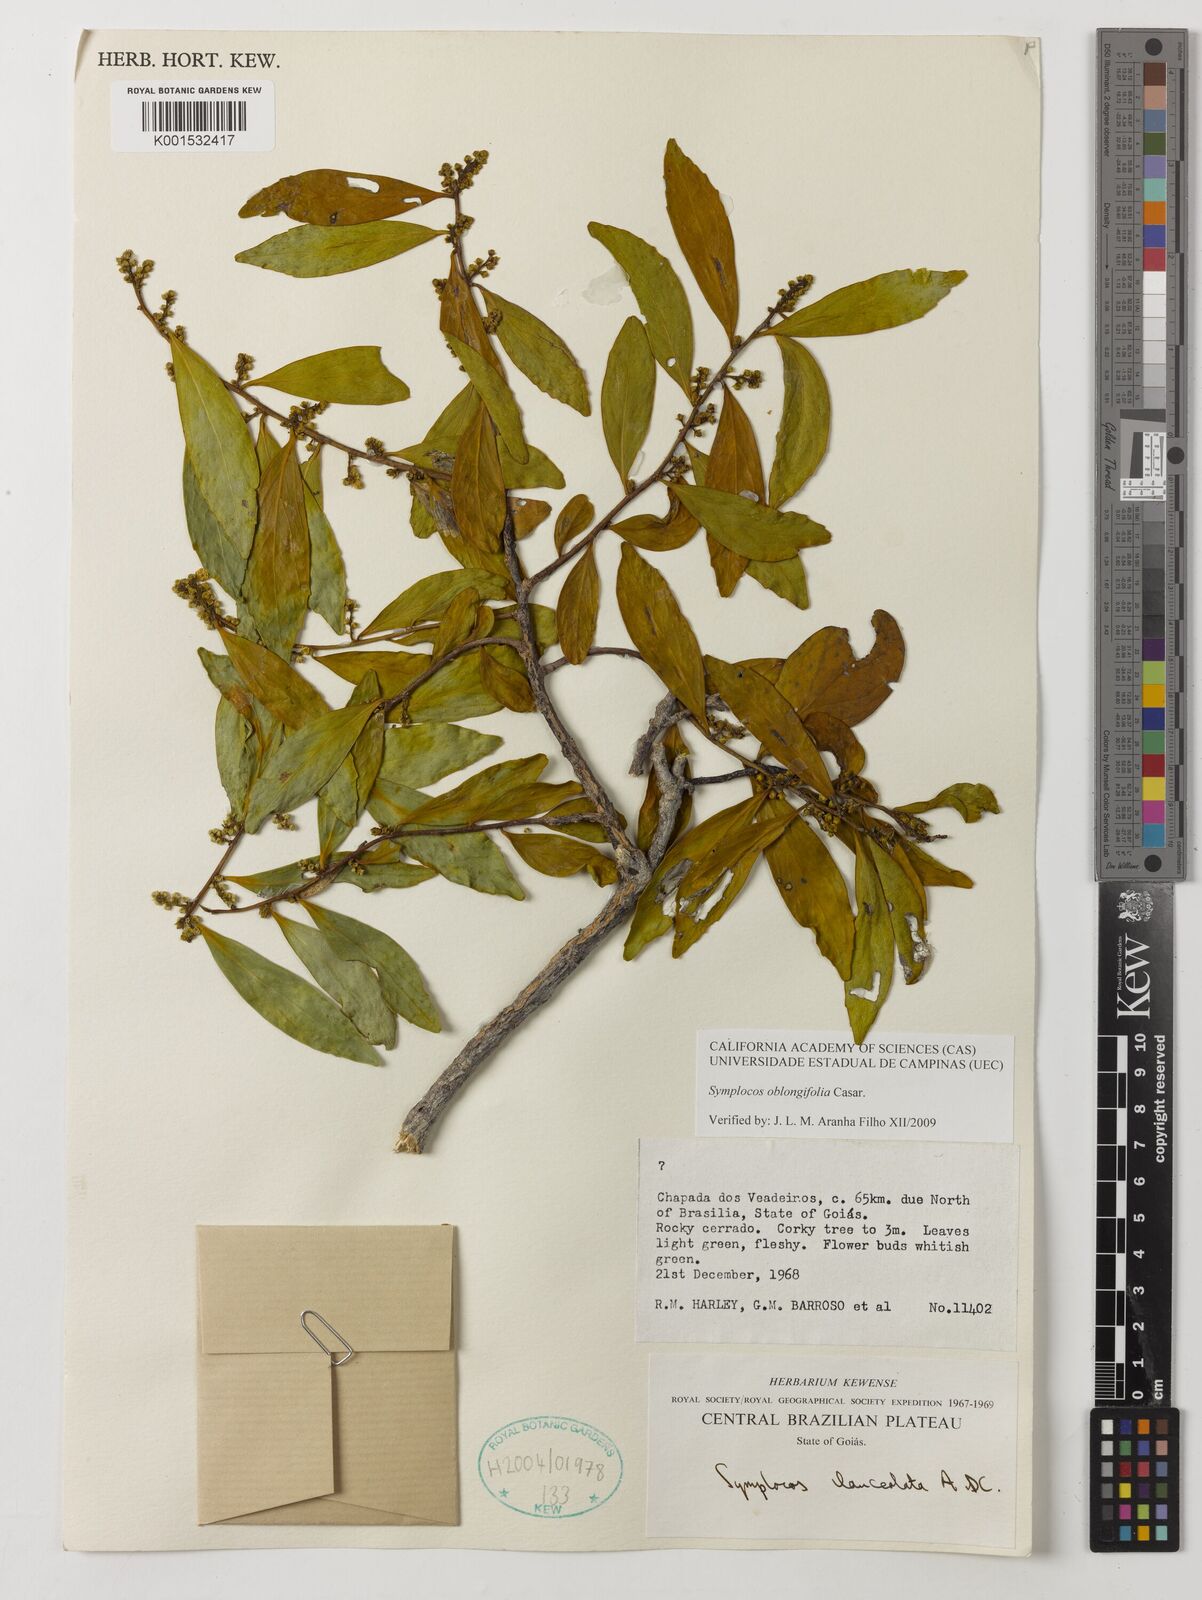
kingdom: Plantae
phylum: Tracheophyta
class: Magnoliopsida
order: Ericales
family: Symplocaceae
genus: Symplocos
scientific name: Symplocos oblongifolia
